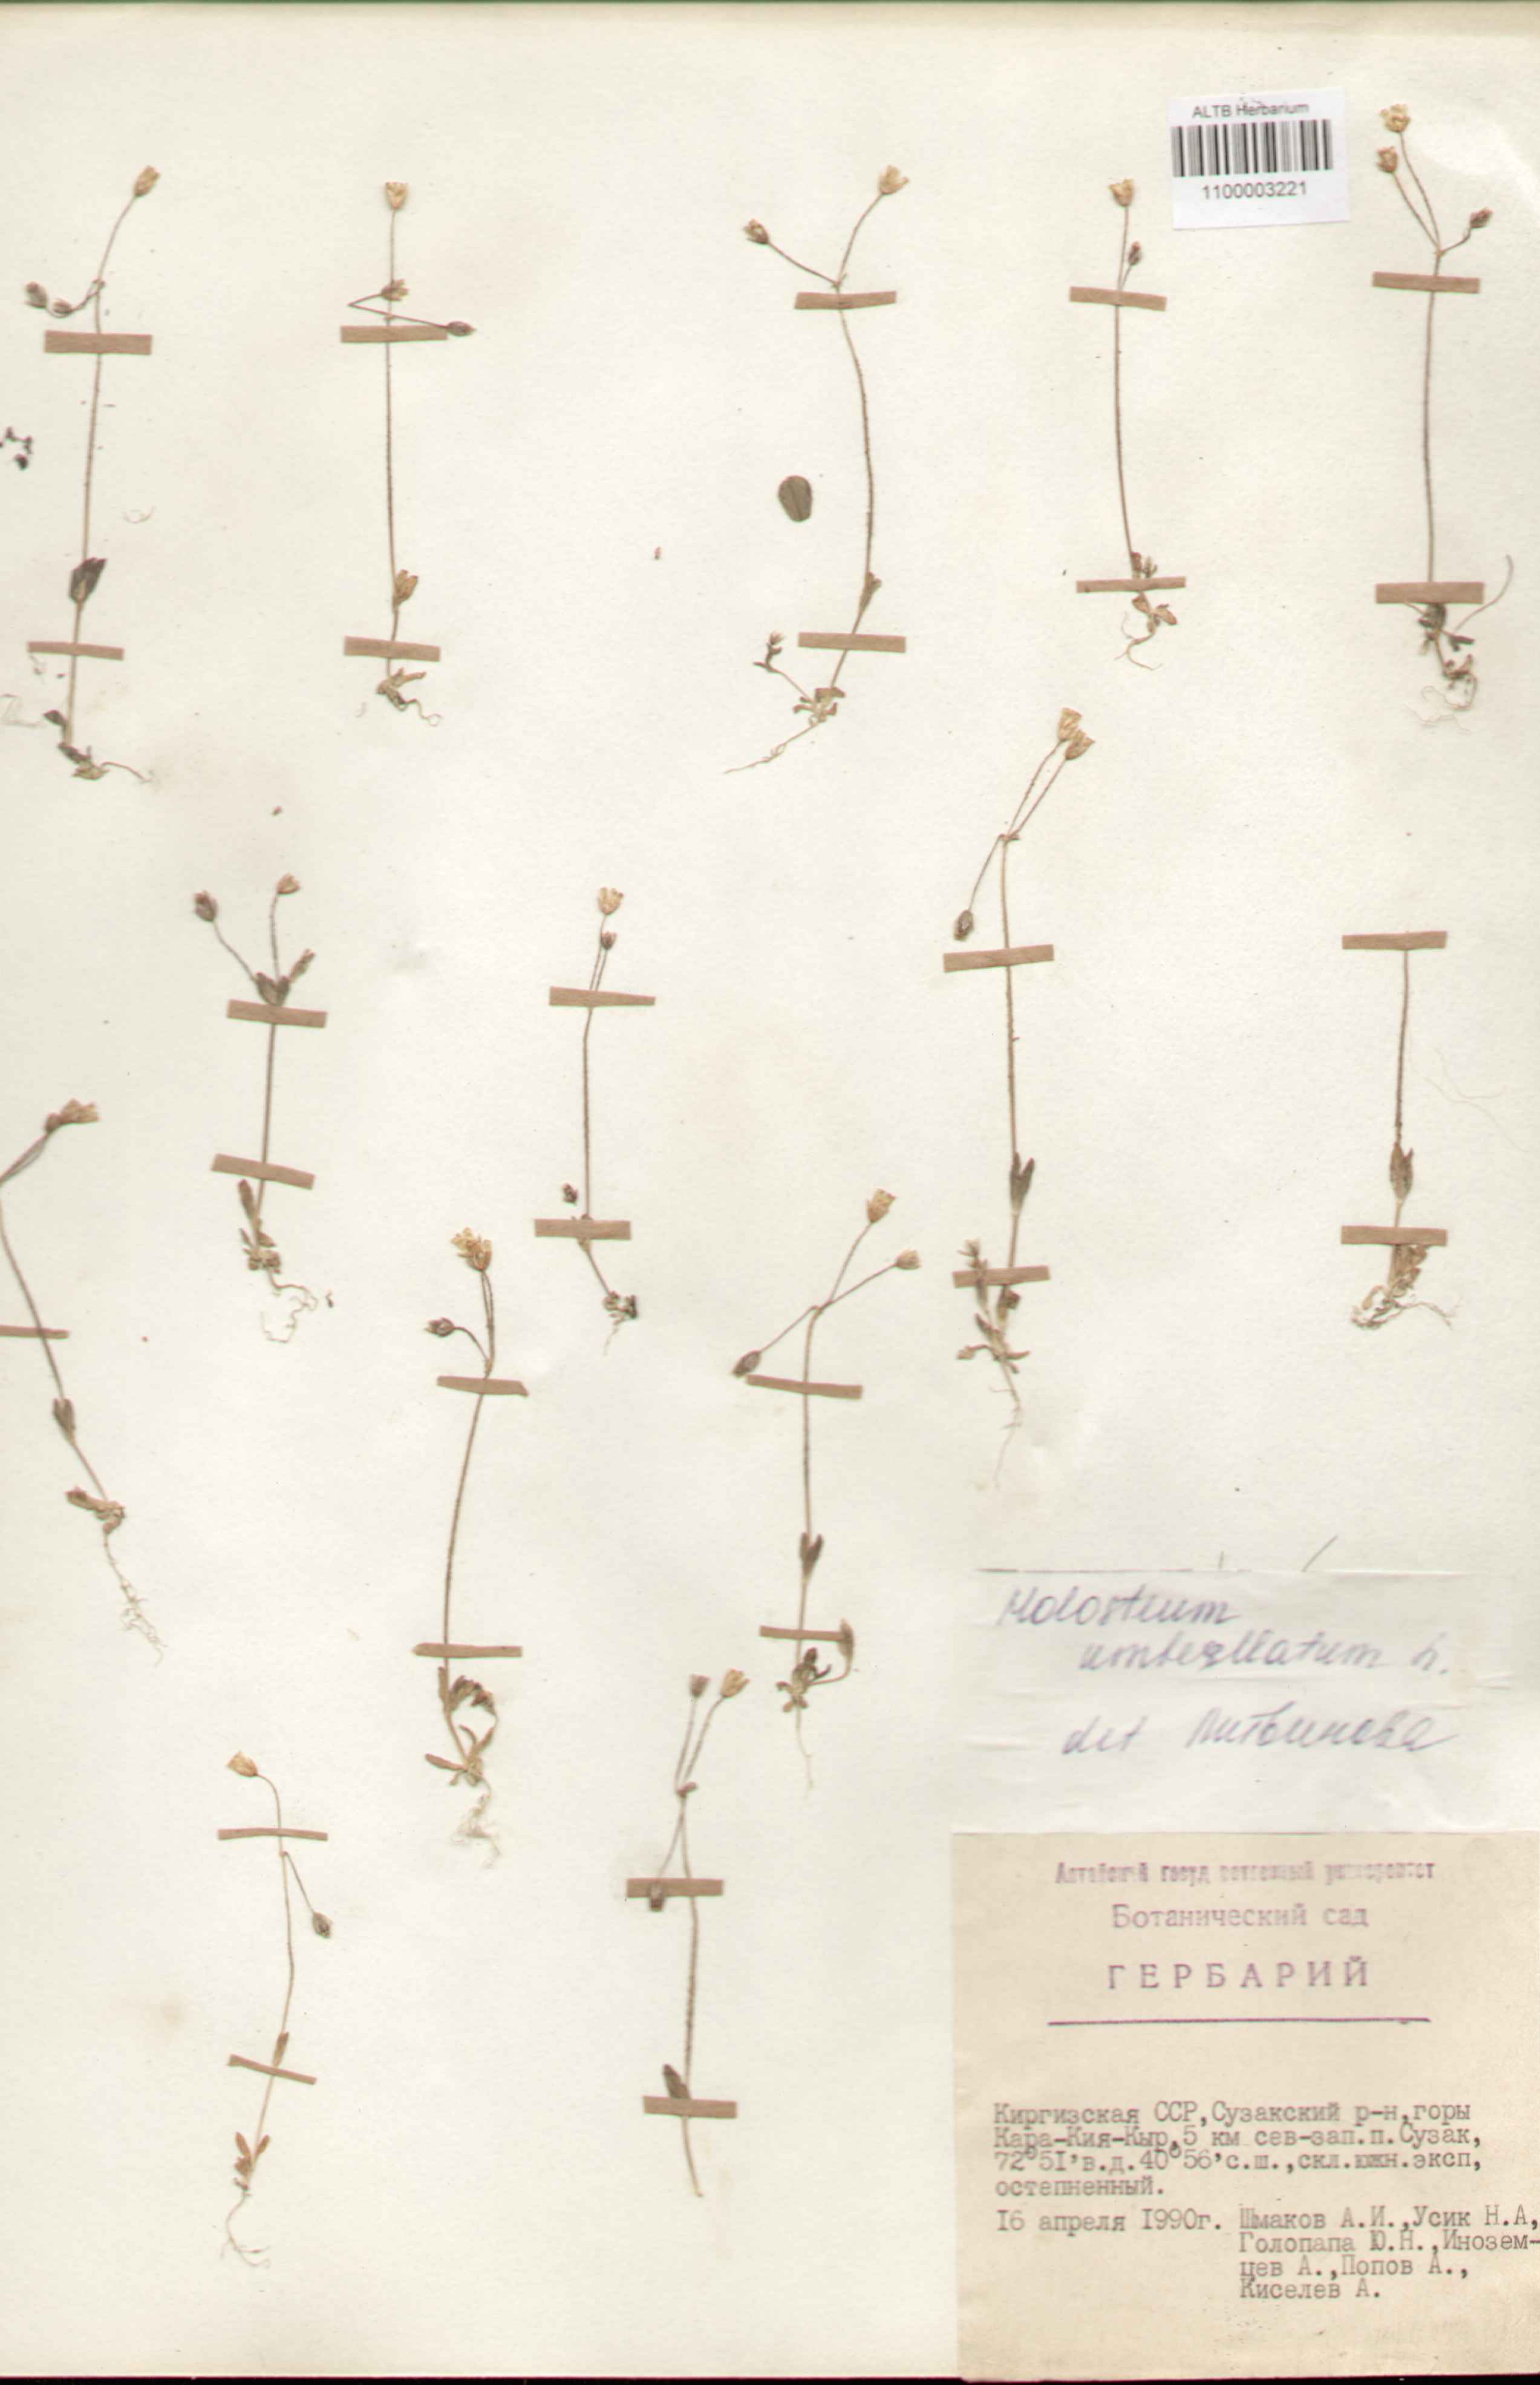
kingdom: Plantae
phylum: Tracheophyta
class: Magnoliopsida
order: Caryophyllales
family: Caryophyllaceae
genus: Holosteum
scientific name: Holosteum umbellatum
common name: Jagged chickweed
